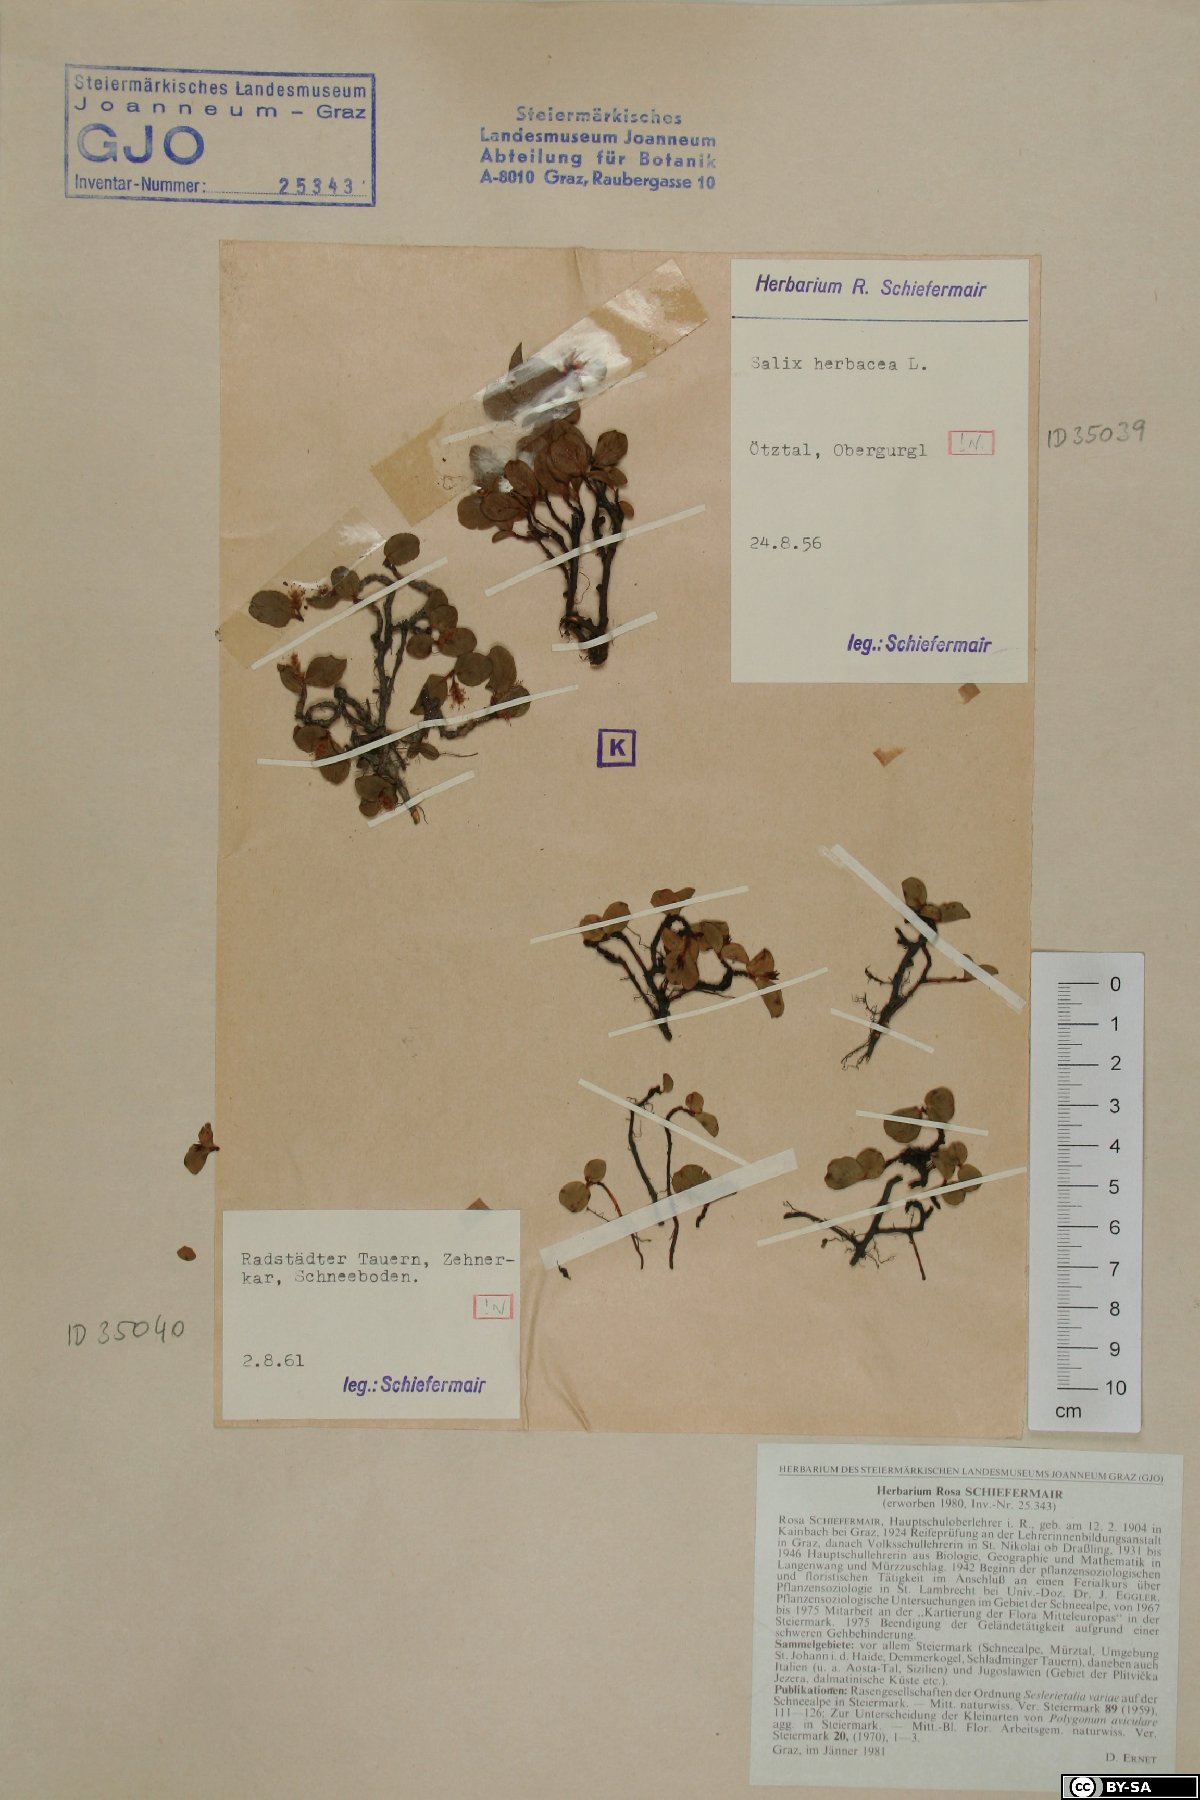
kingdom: Plantae
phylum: Tracheophyta
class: Magnoliopsida
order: Malpighiales
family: Salicaceae
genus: Salix
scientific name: Salix herbacea
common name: Dwarf willow
